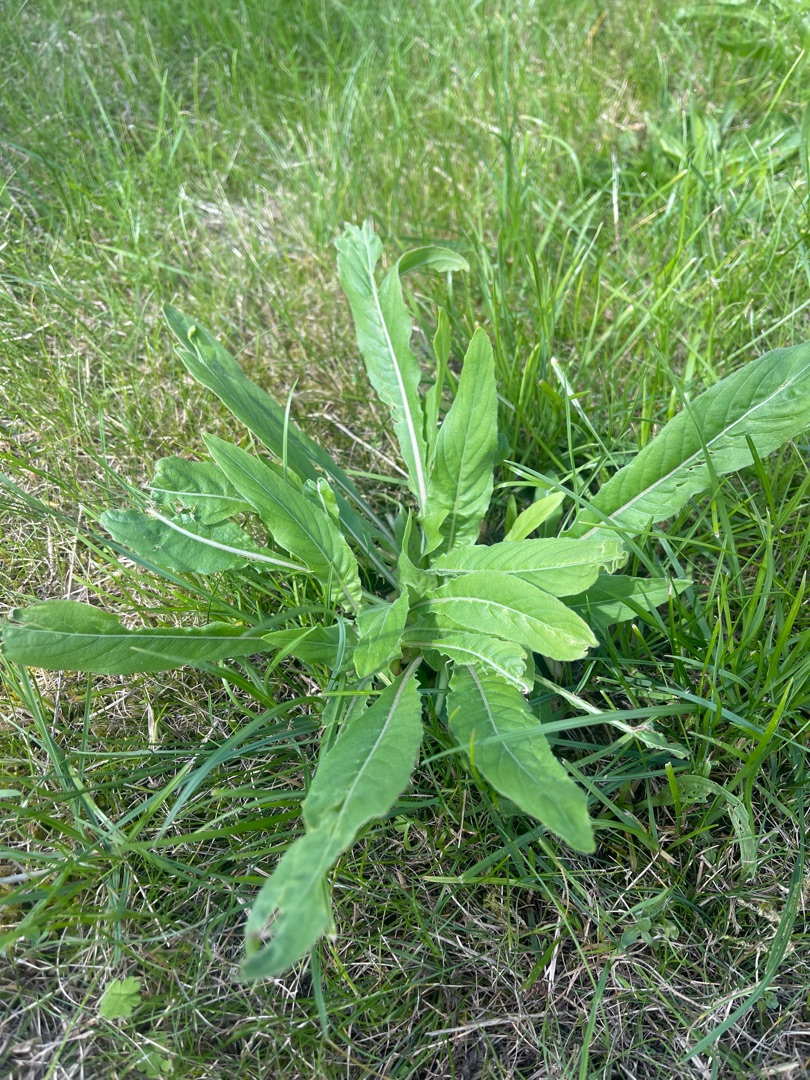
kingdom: Plantae
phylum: Tracheophyta
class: Magnoliopsida
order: Myrtales
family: Onagraceae
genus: Oenothera
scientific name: Oenothera
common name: Natlysslægten
